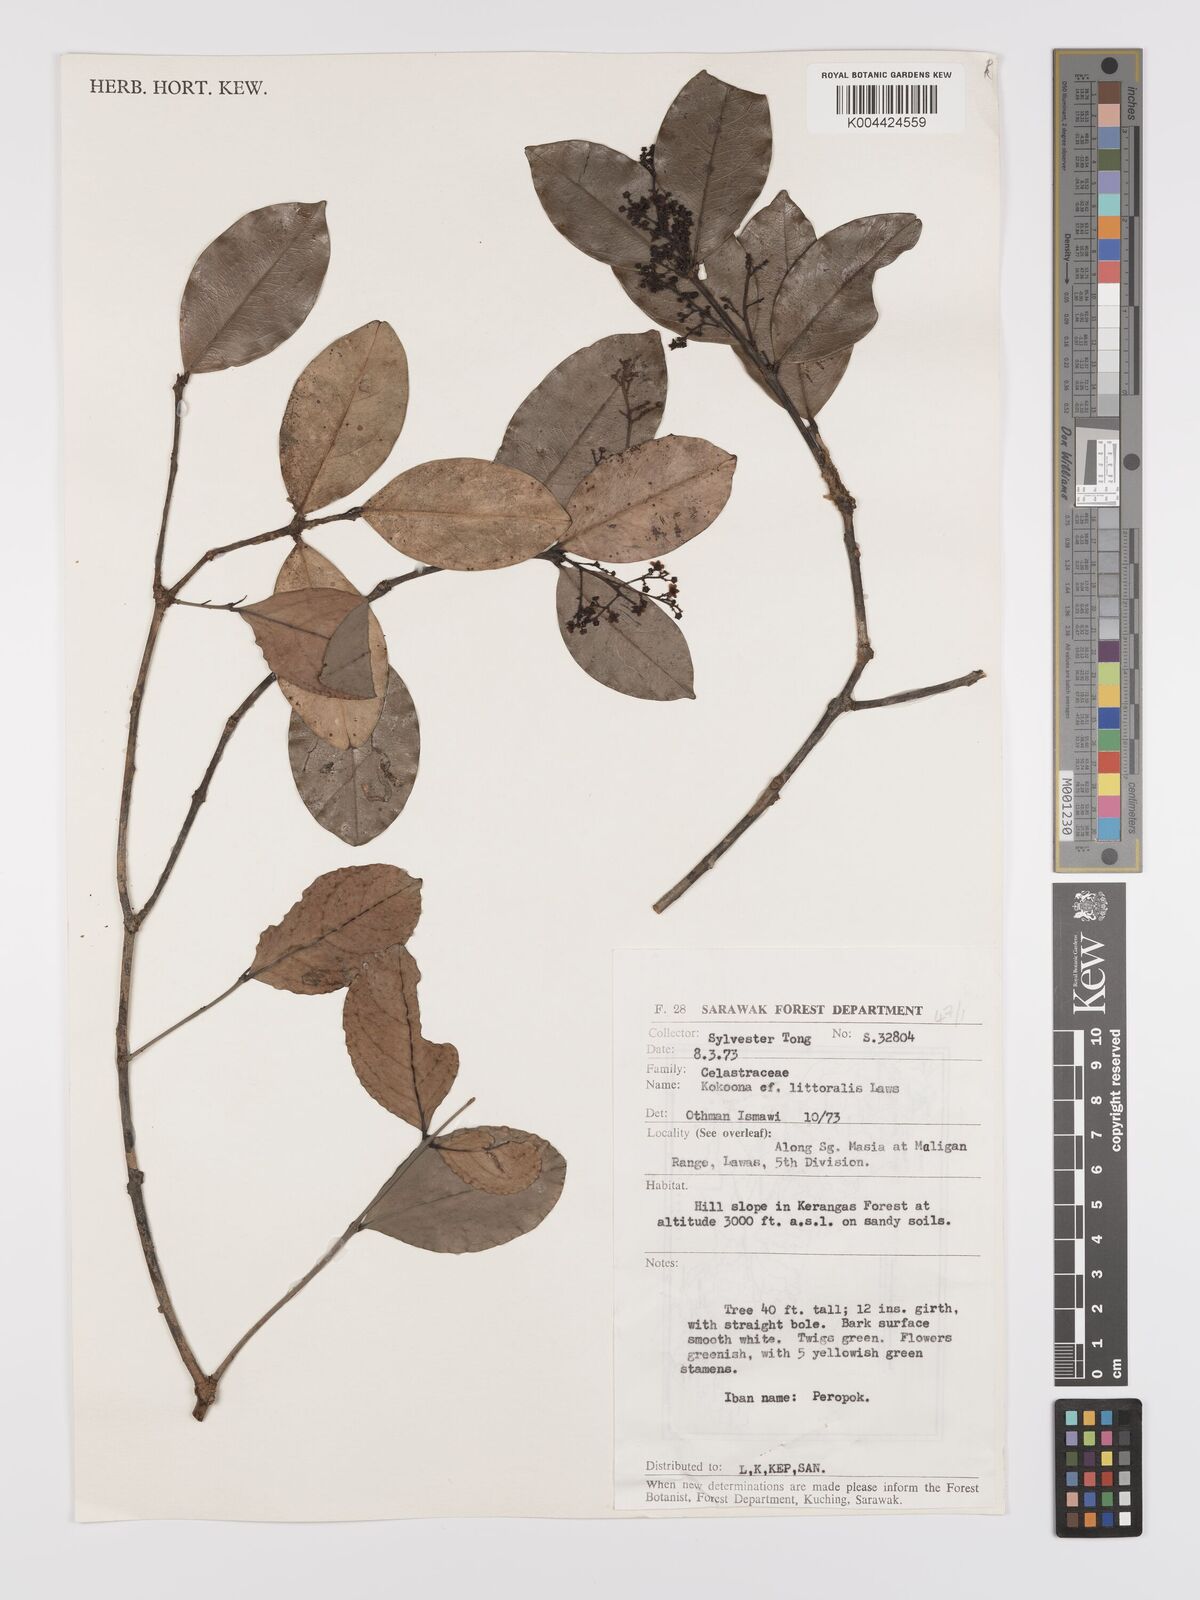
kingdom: Plantae
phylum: Tracheophyta
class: Magnoliopsida
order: Celastrales
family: Celastraceae
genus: Kokoona
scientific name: Kokoona littoralis
